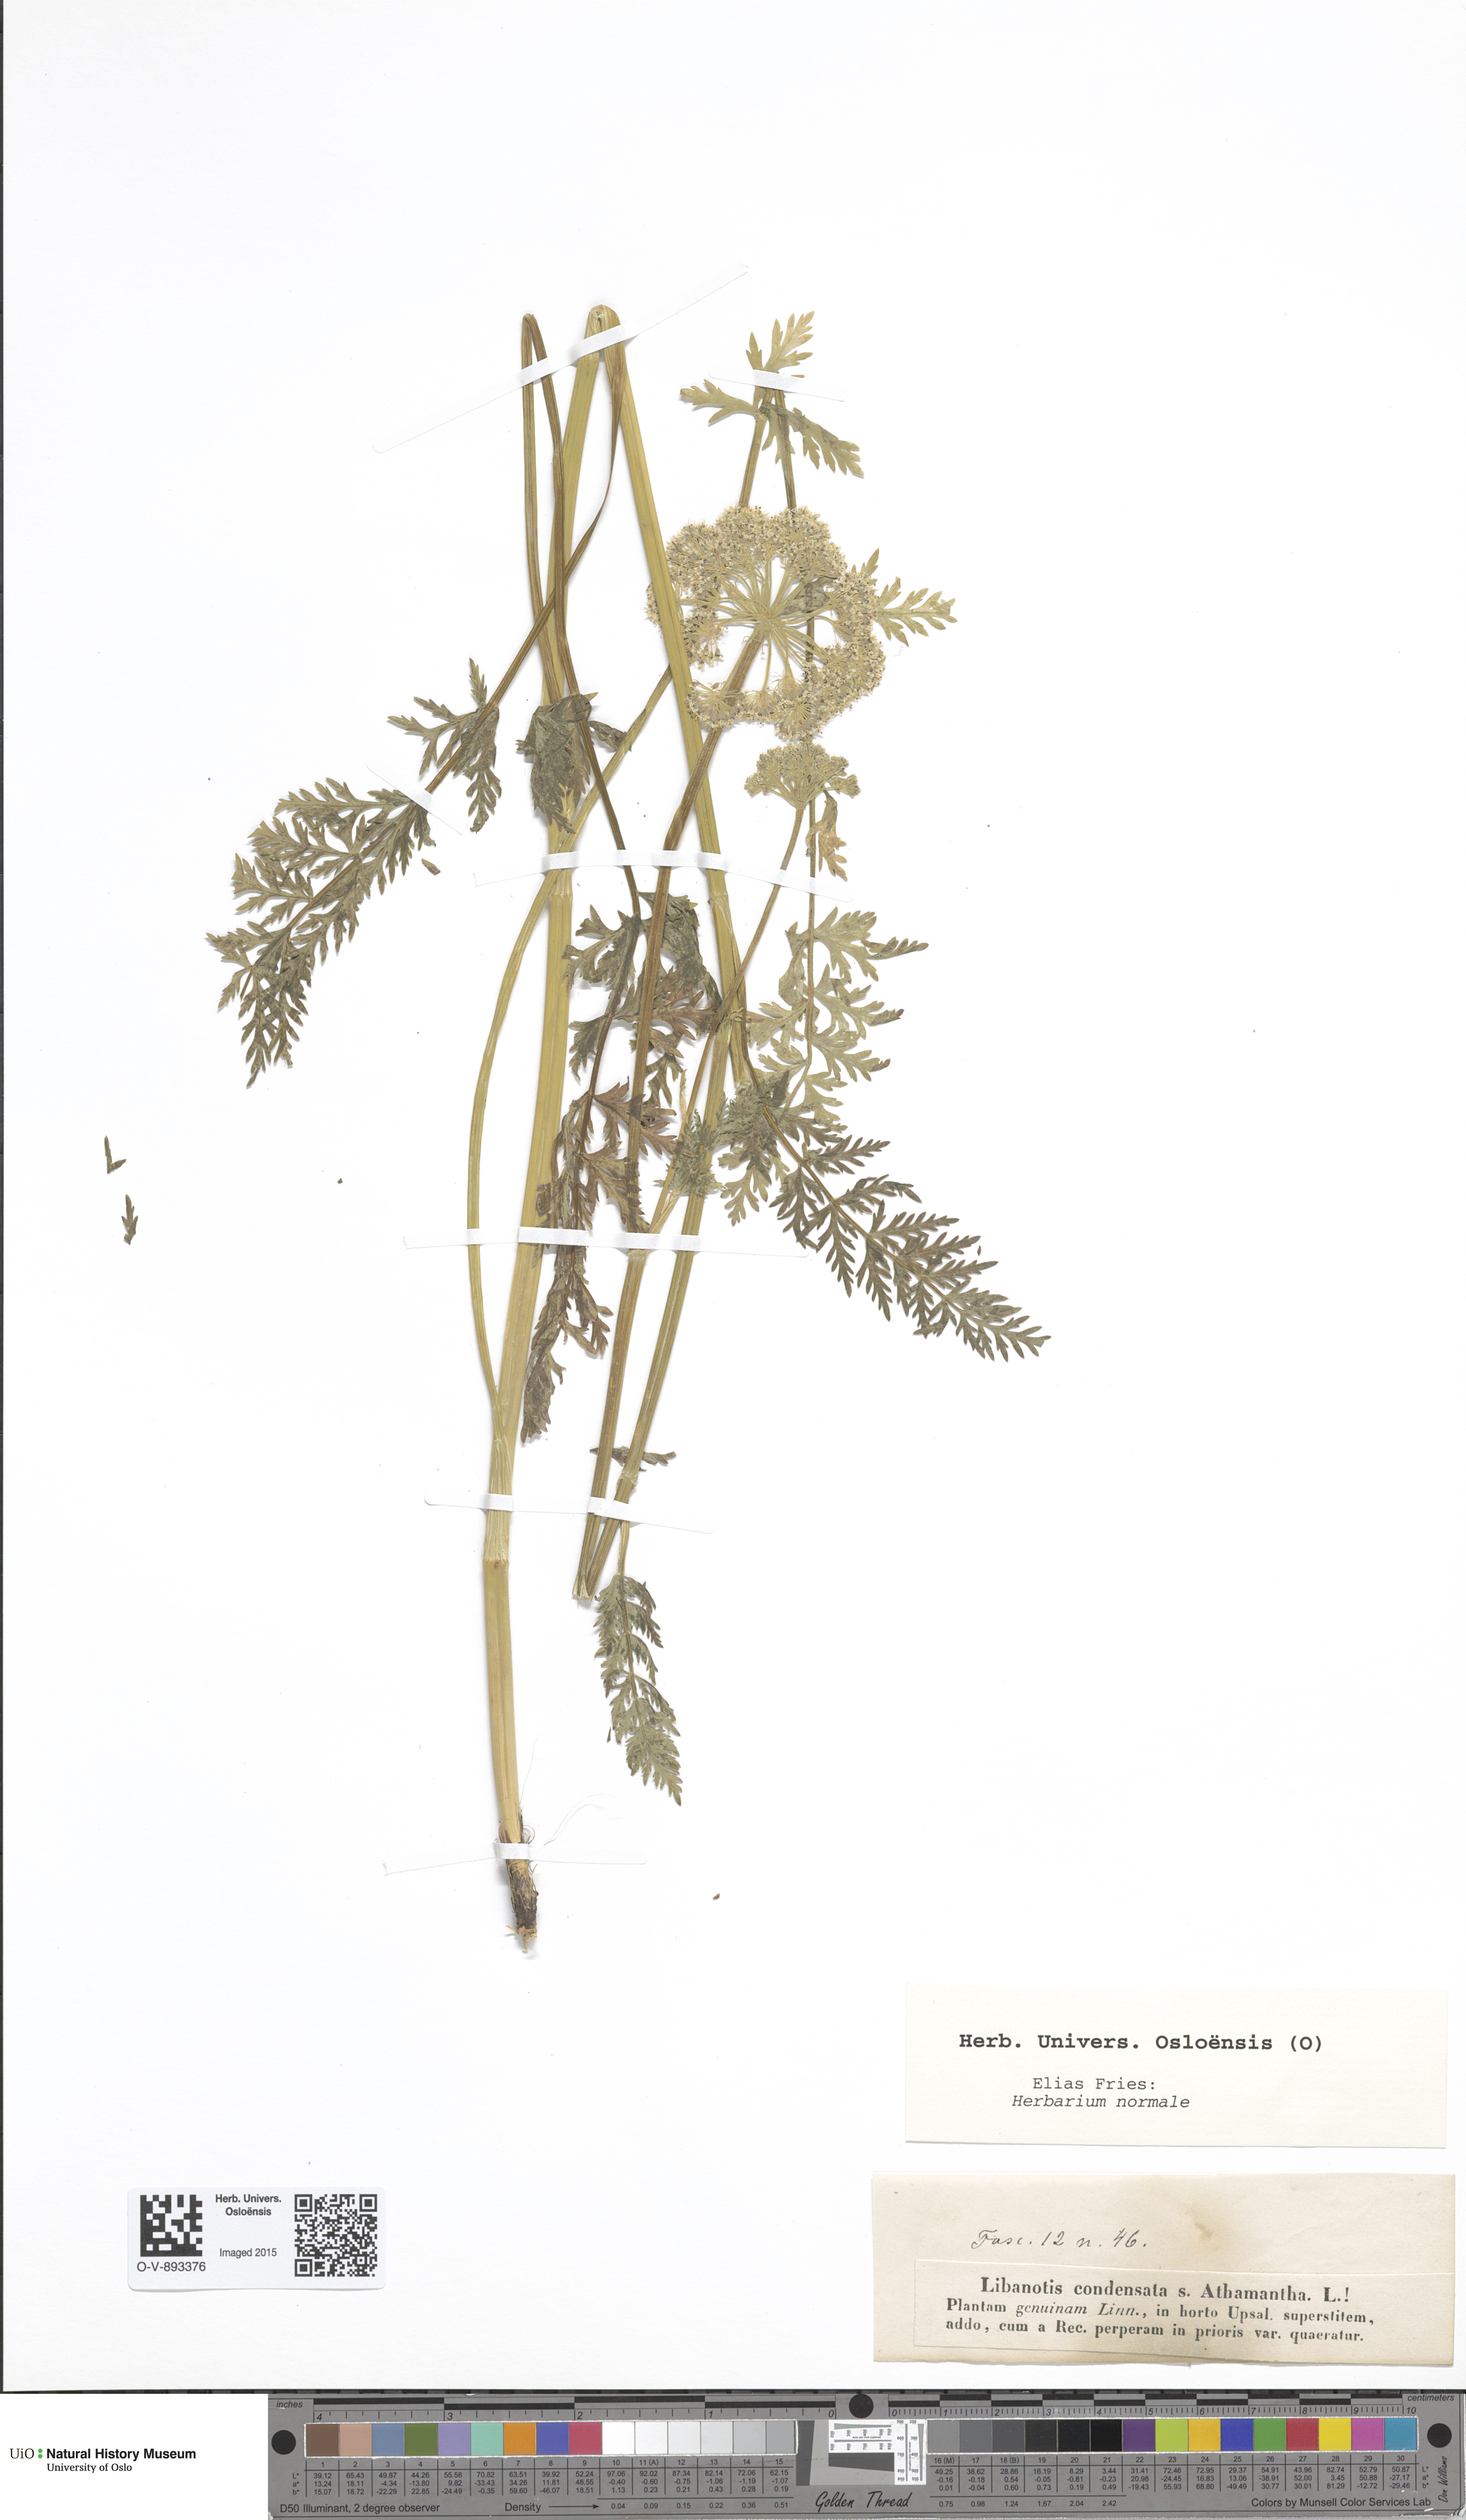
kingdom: Plantae
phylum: Tracheophyta
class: Magnoliopsida
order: Apiales
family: Apiaceae
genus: Seseli
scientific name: Seseli condensatum
